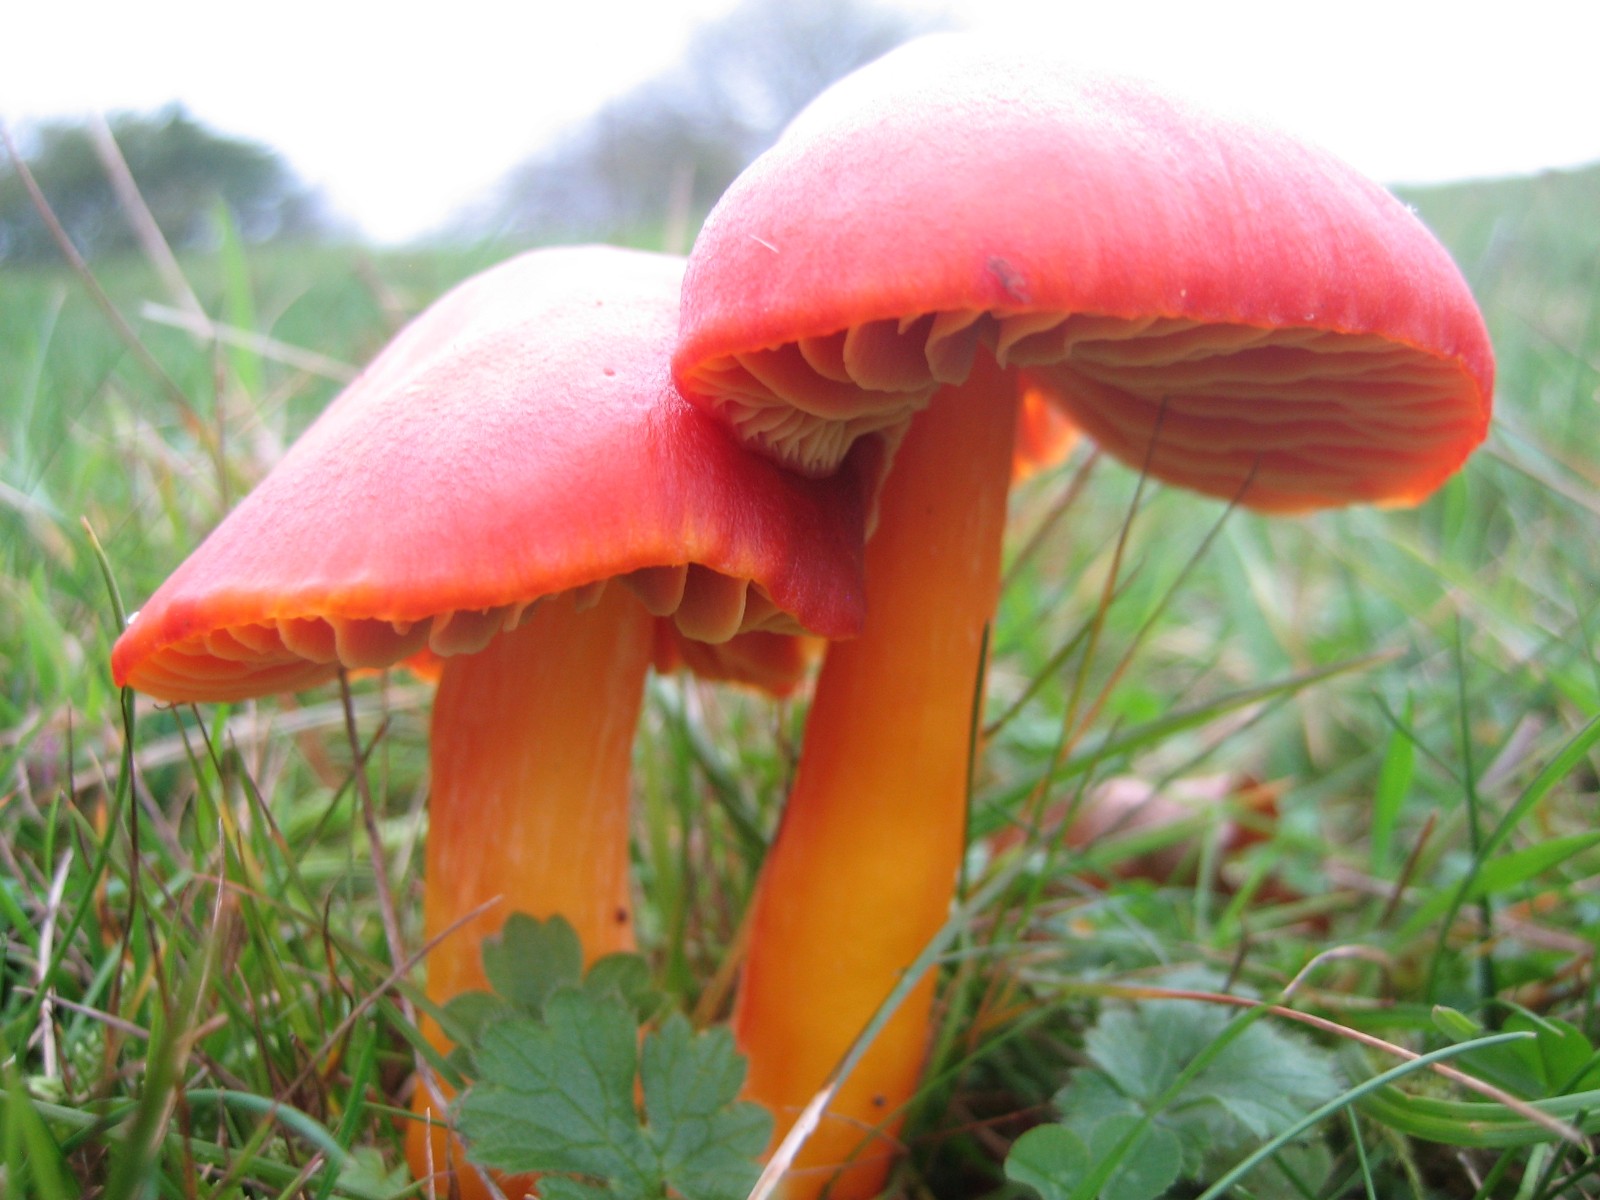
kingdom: Fungi
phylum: Basidiomycota
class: Agaricomycetes
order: Agaricales
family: Hygrophoraceae
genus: Hygrocybe
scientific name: Hygrocybe punicea
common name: skarlagen-vokshat
